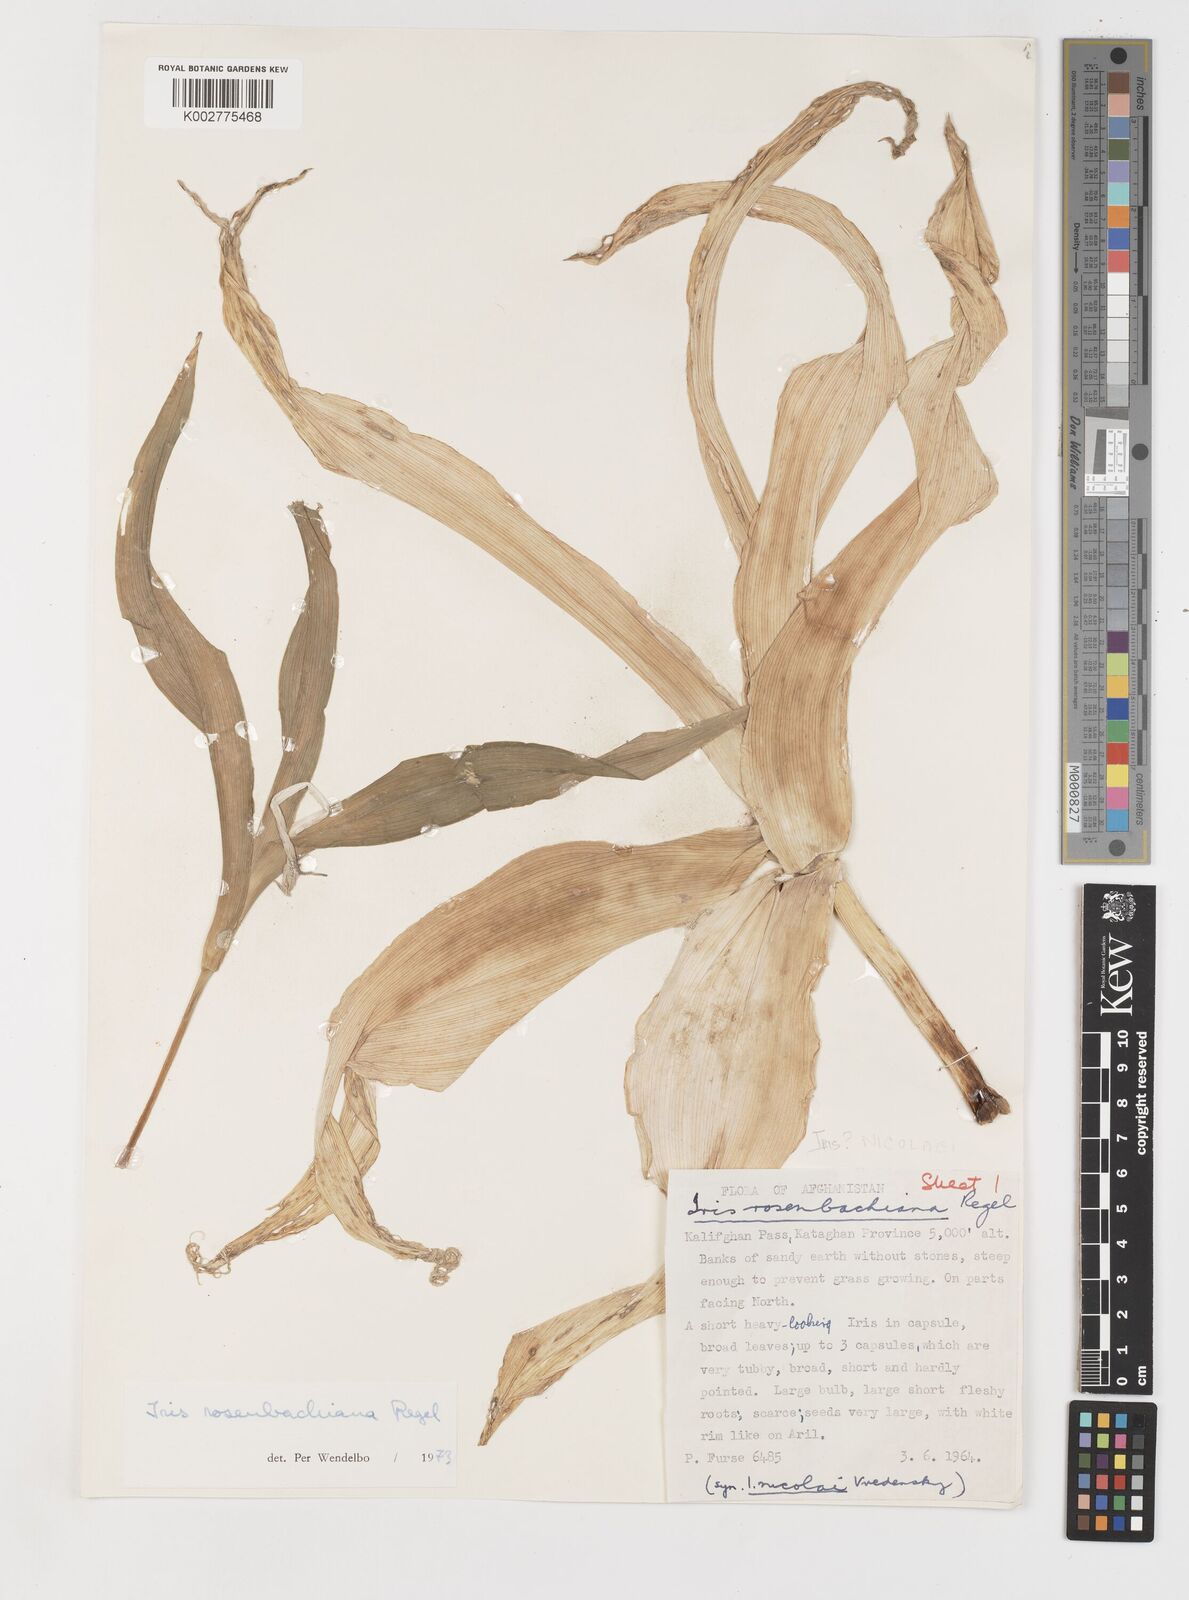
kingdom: Plantae
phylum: Tracheophyta
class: Liliopsida
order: Asparagales
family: Iridaceae
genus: Iris
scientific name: Iris rosenbachiana
